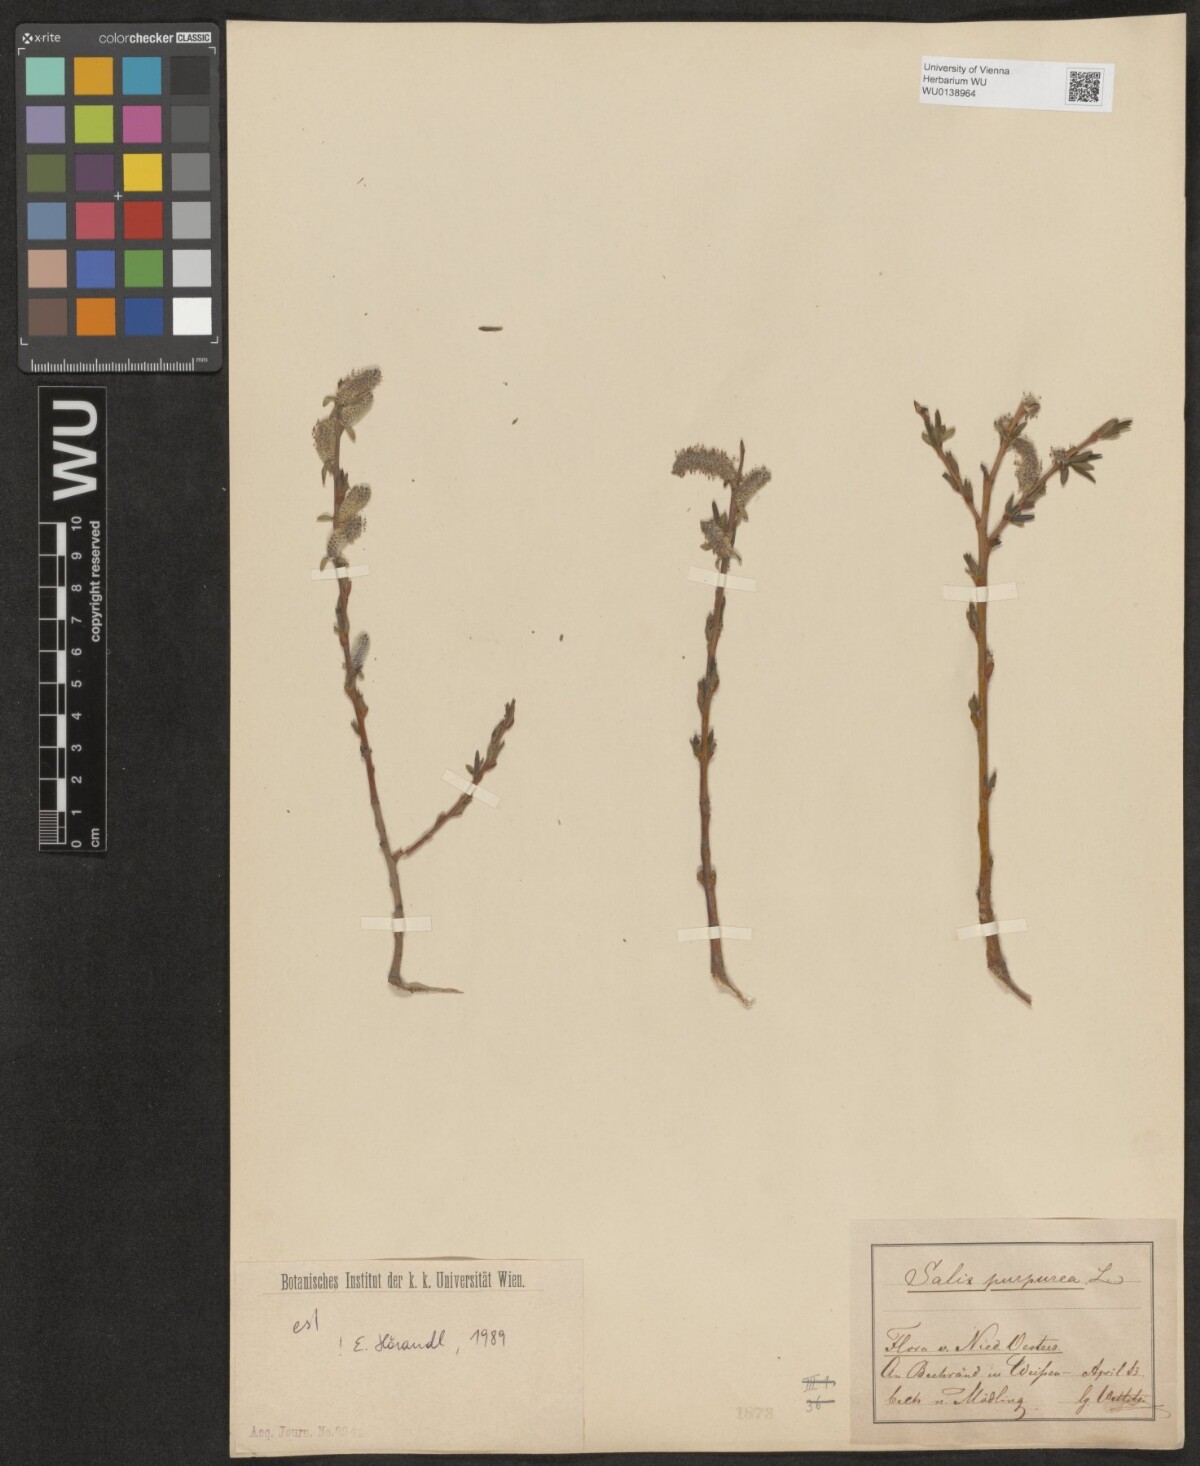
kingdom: Plantae
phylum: Tracheophyta
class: Magnoliopsida
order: Malpighiales
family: Salicaceae
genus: Salix
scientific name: Salix purpurea
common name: Purple willow
